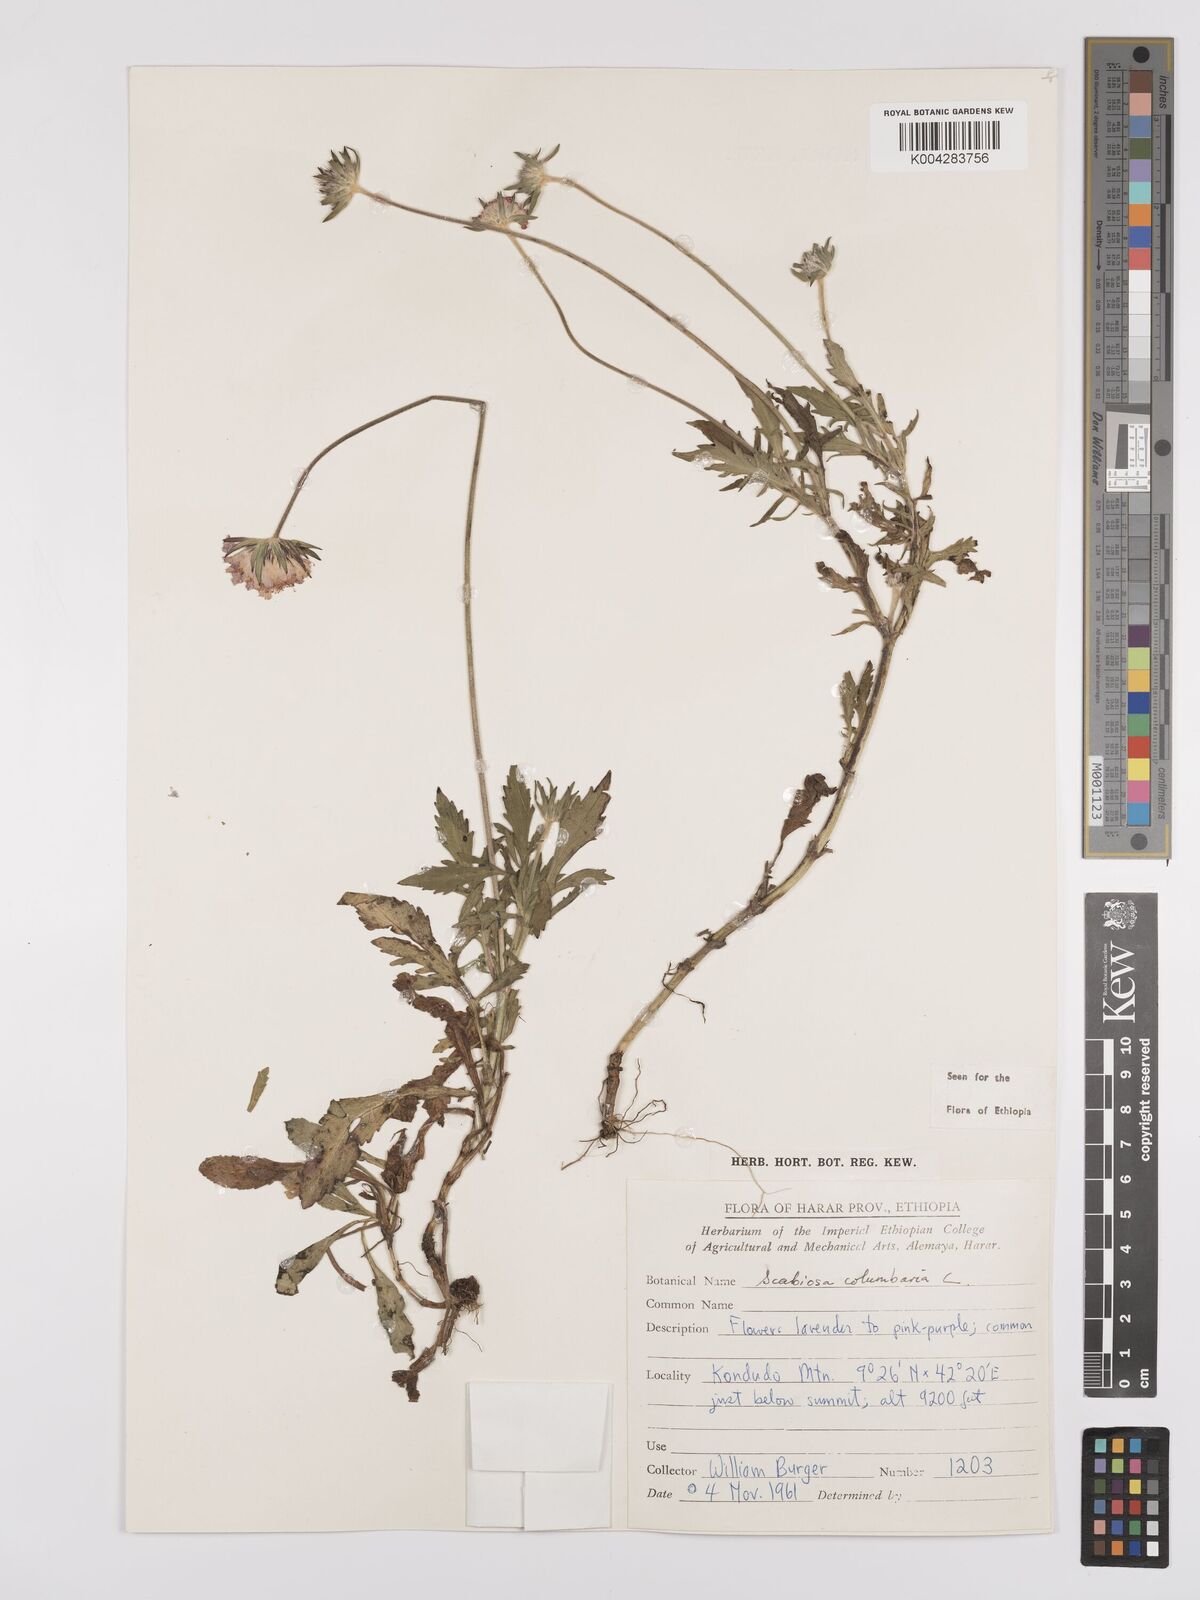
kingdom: Plantae
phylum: Tracheophyta
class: Magnoliopsida
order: Dipsacales
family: Caprifoliaceae
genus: Scabiosa
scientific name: Scabiosa columbaria
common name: Small scabious
